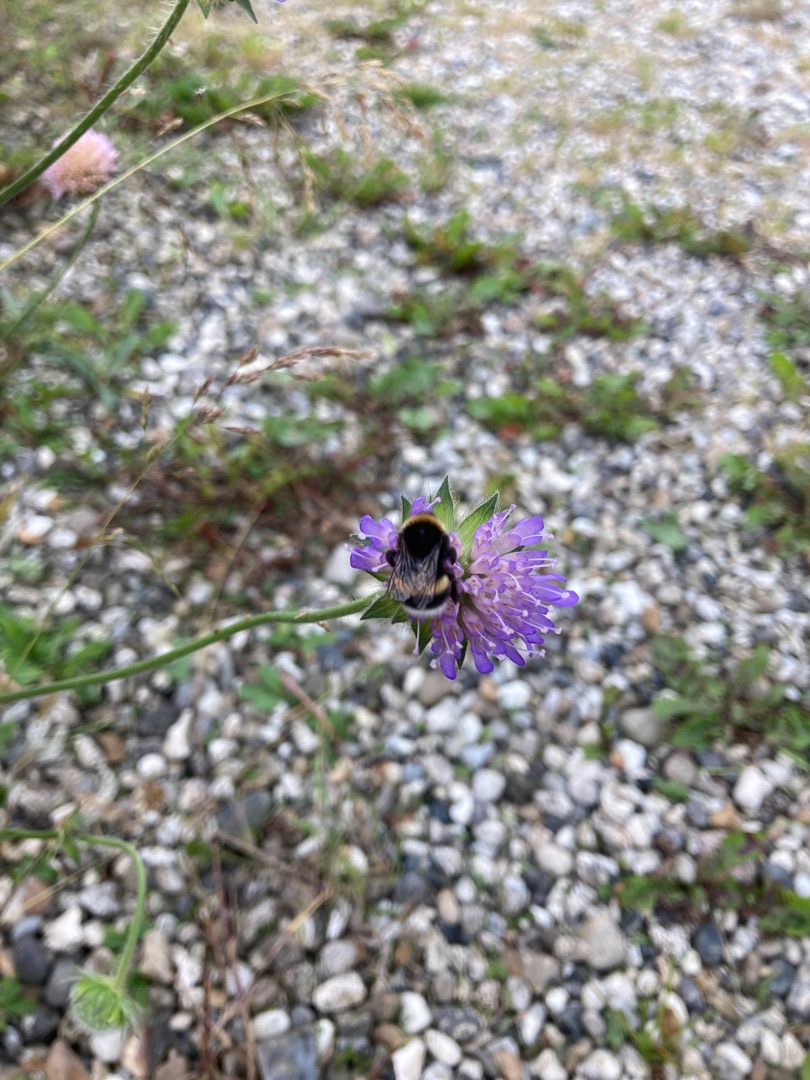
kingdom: Plantae
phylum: Tracheophyta
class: Magnoliopsida
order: Dipsacales
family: Caprifoliaceae
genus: Knautia
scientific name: Knautia arvensis
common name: Blåhat
